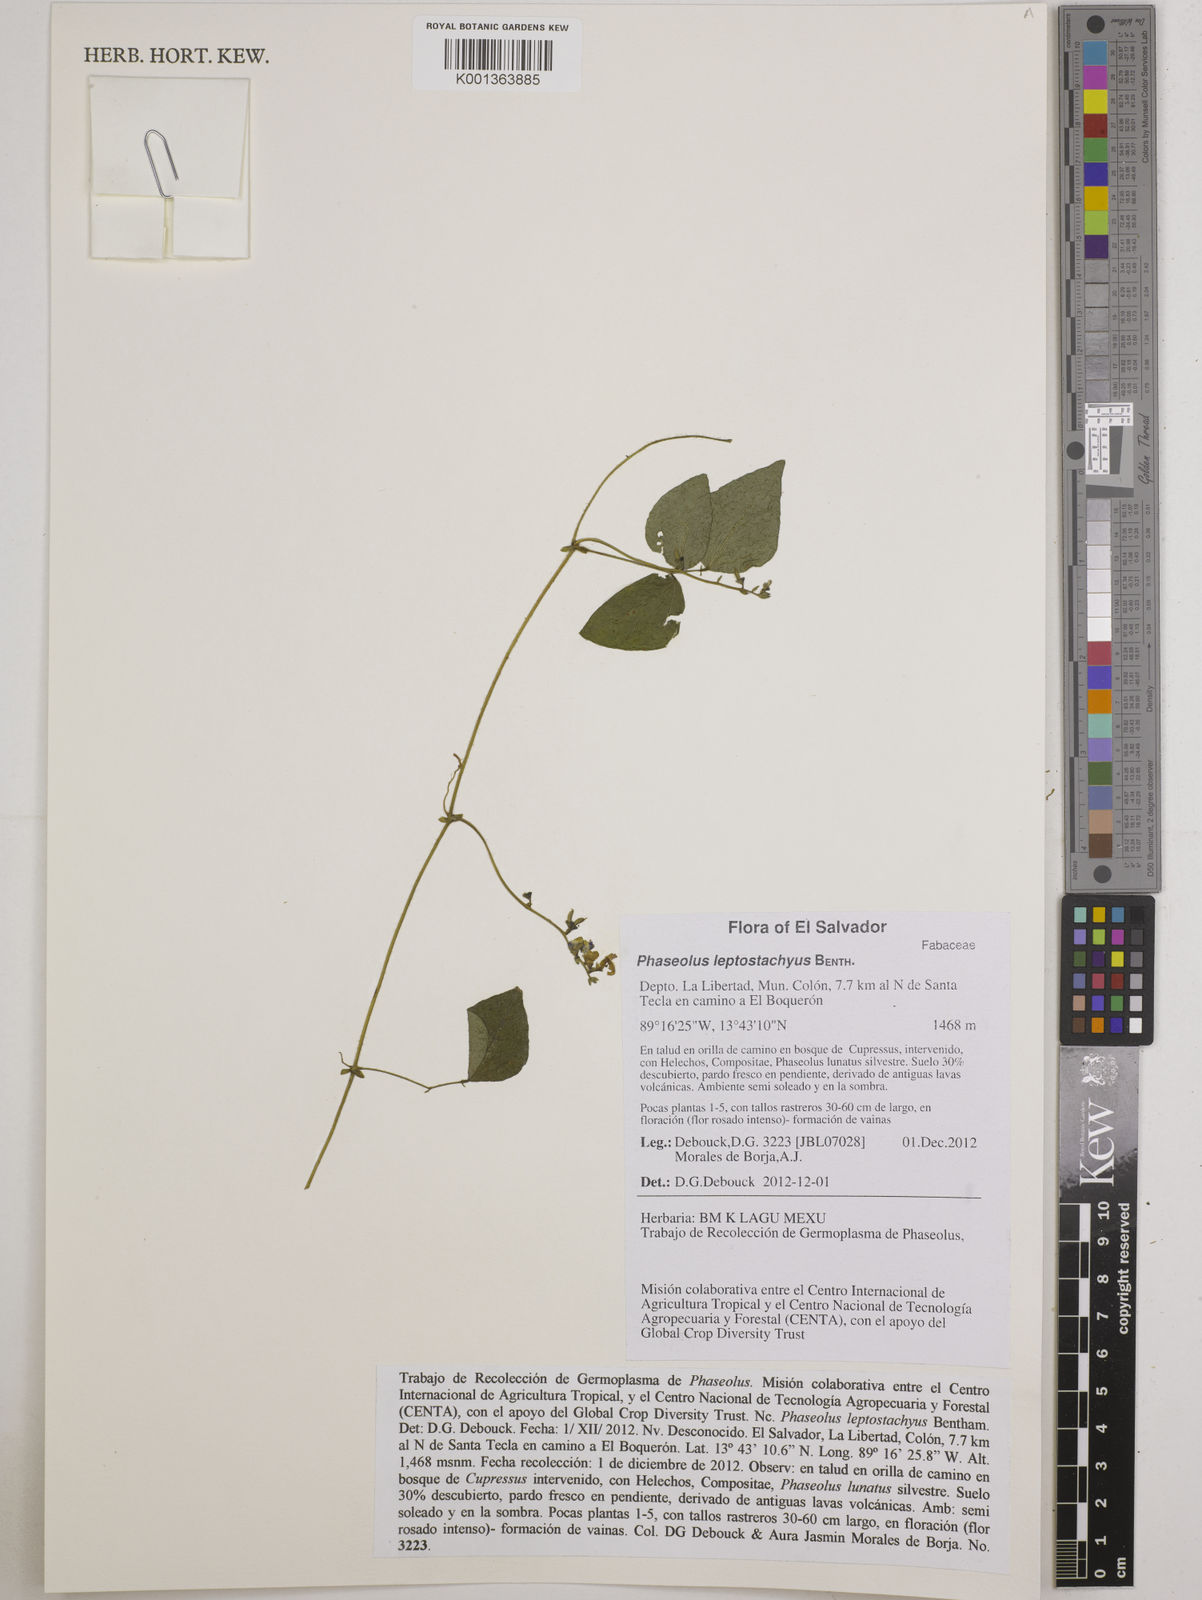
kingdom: Plantae
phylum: Tracheophyta
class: Magnoliopsida
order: Fabales
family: Fabaceae
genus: Phaseolus
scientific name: Phaseolus leptostachyus
